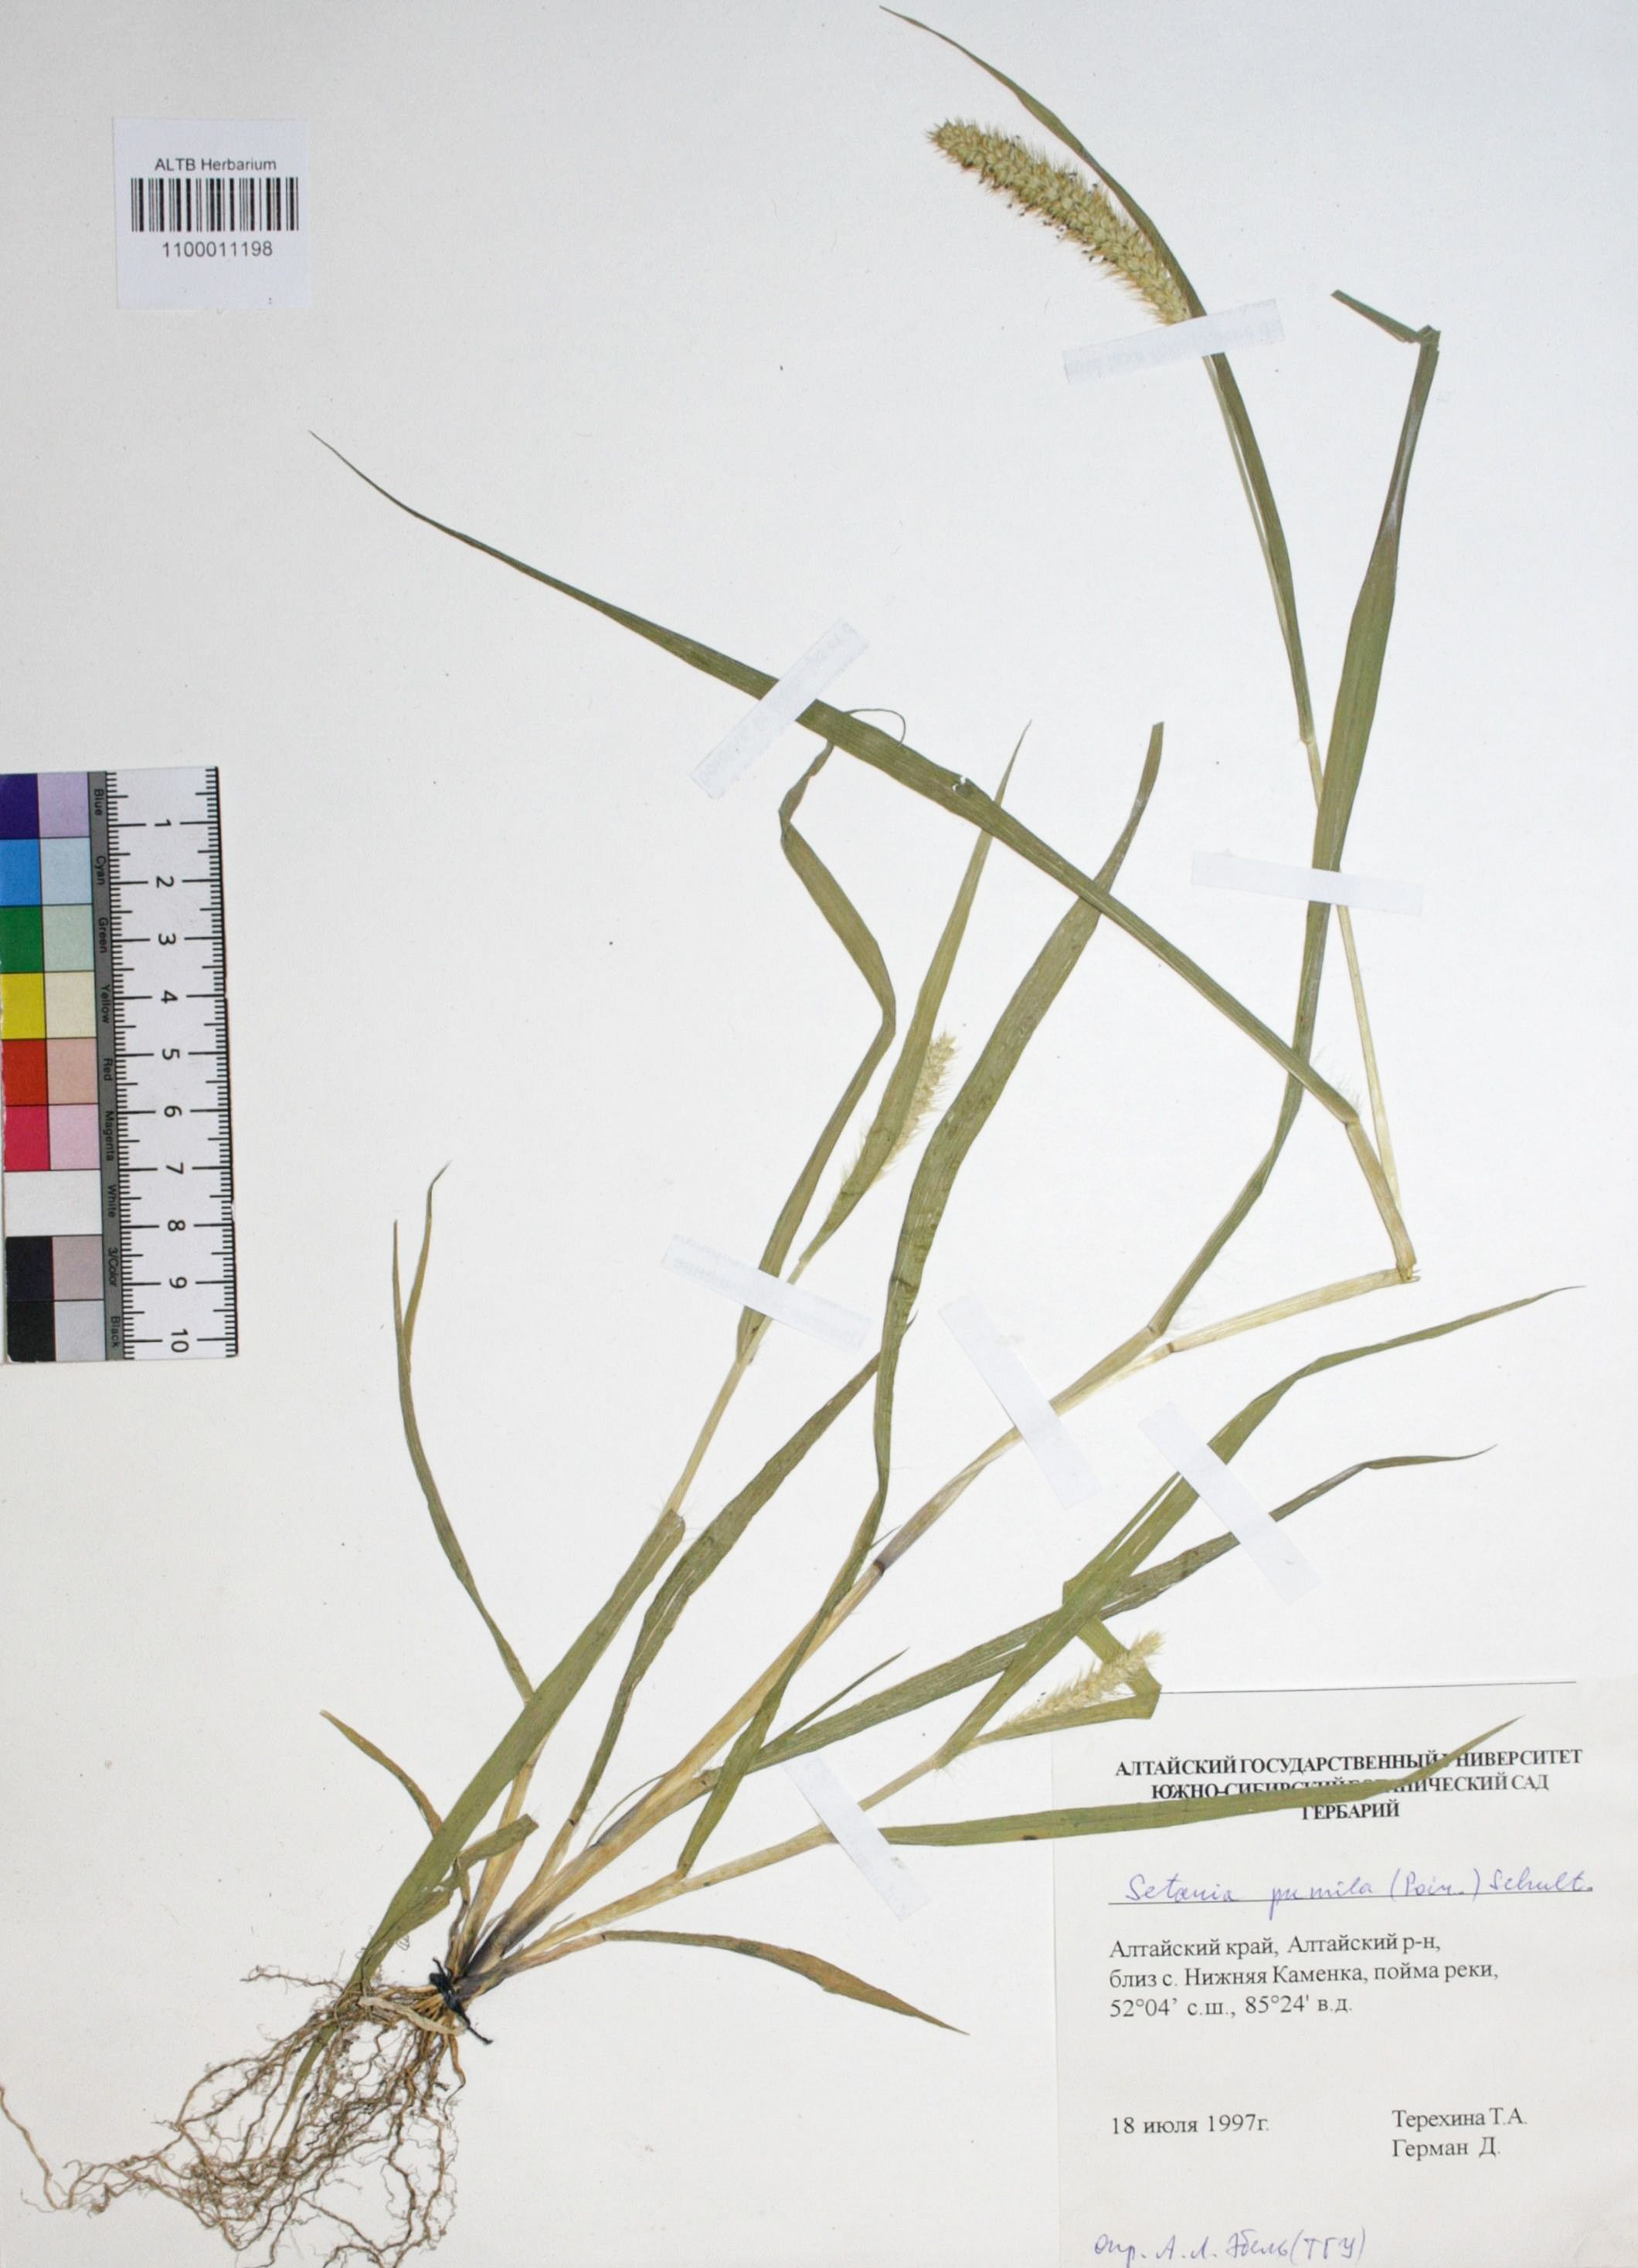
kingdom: Plantae
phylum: Tracheophyta
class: Liliopsida
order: Poales
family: Poaceae
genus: Setaria
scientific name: Setaria pumila
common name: Yellow bristle-grass
